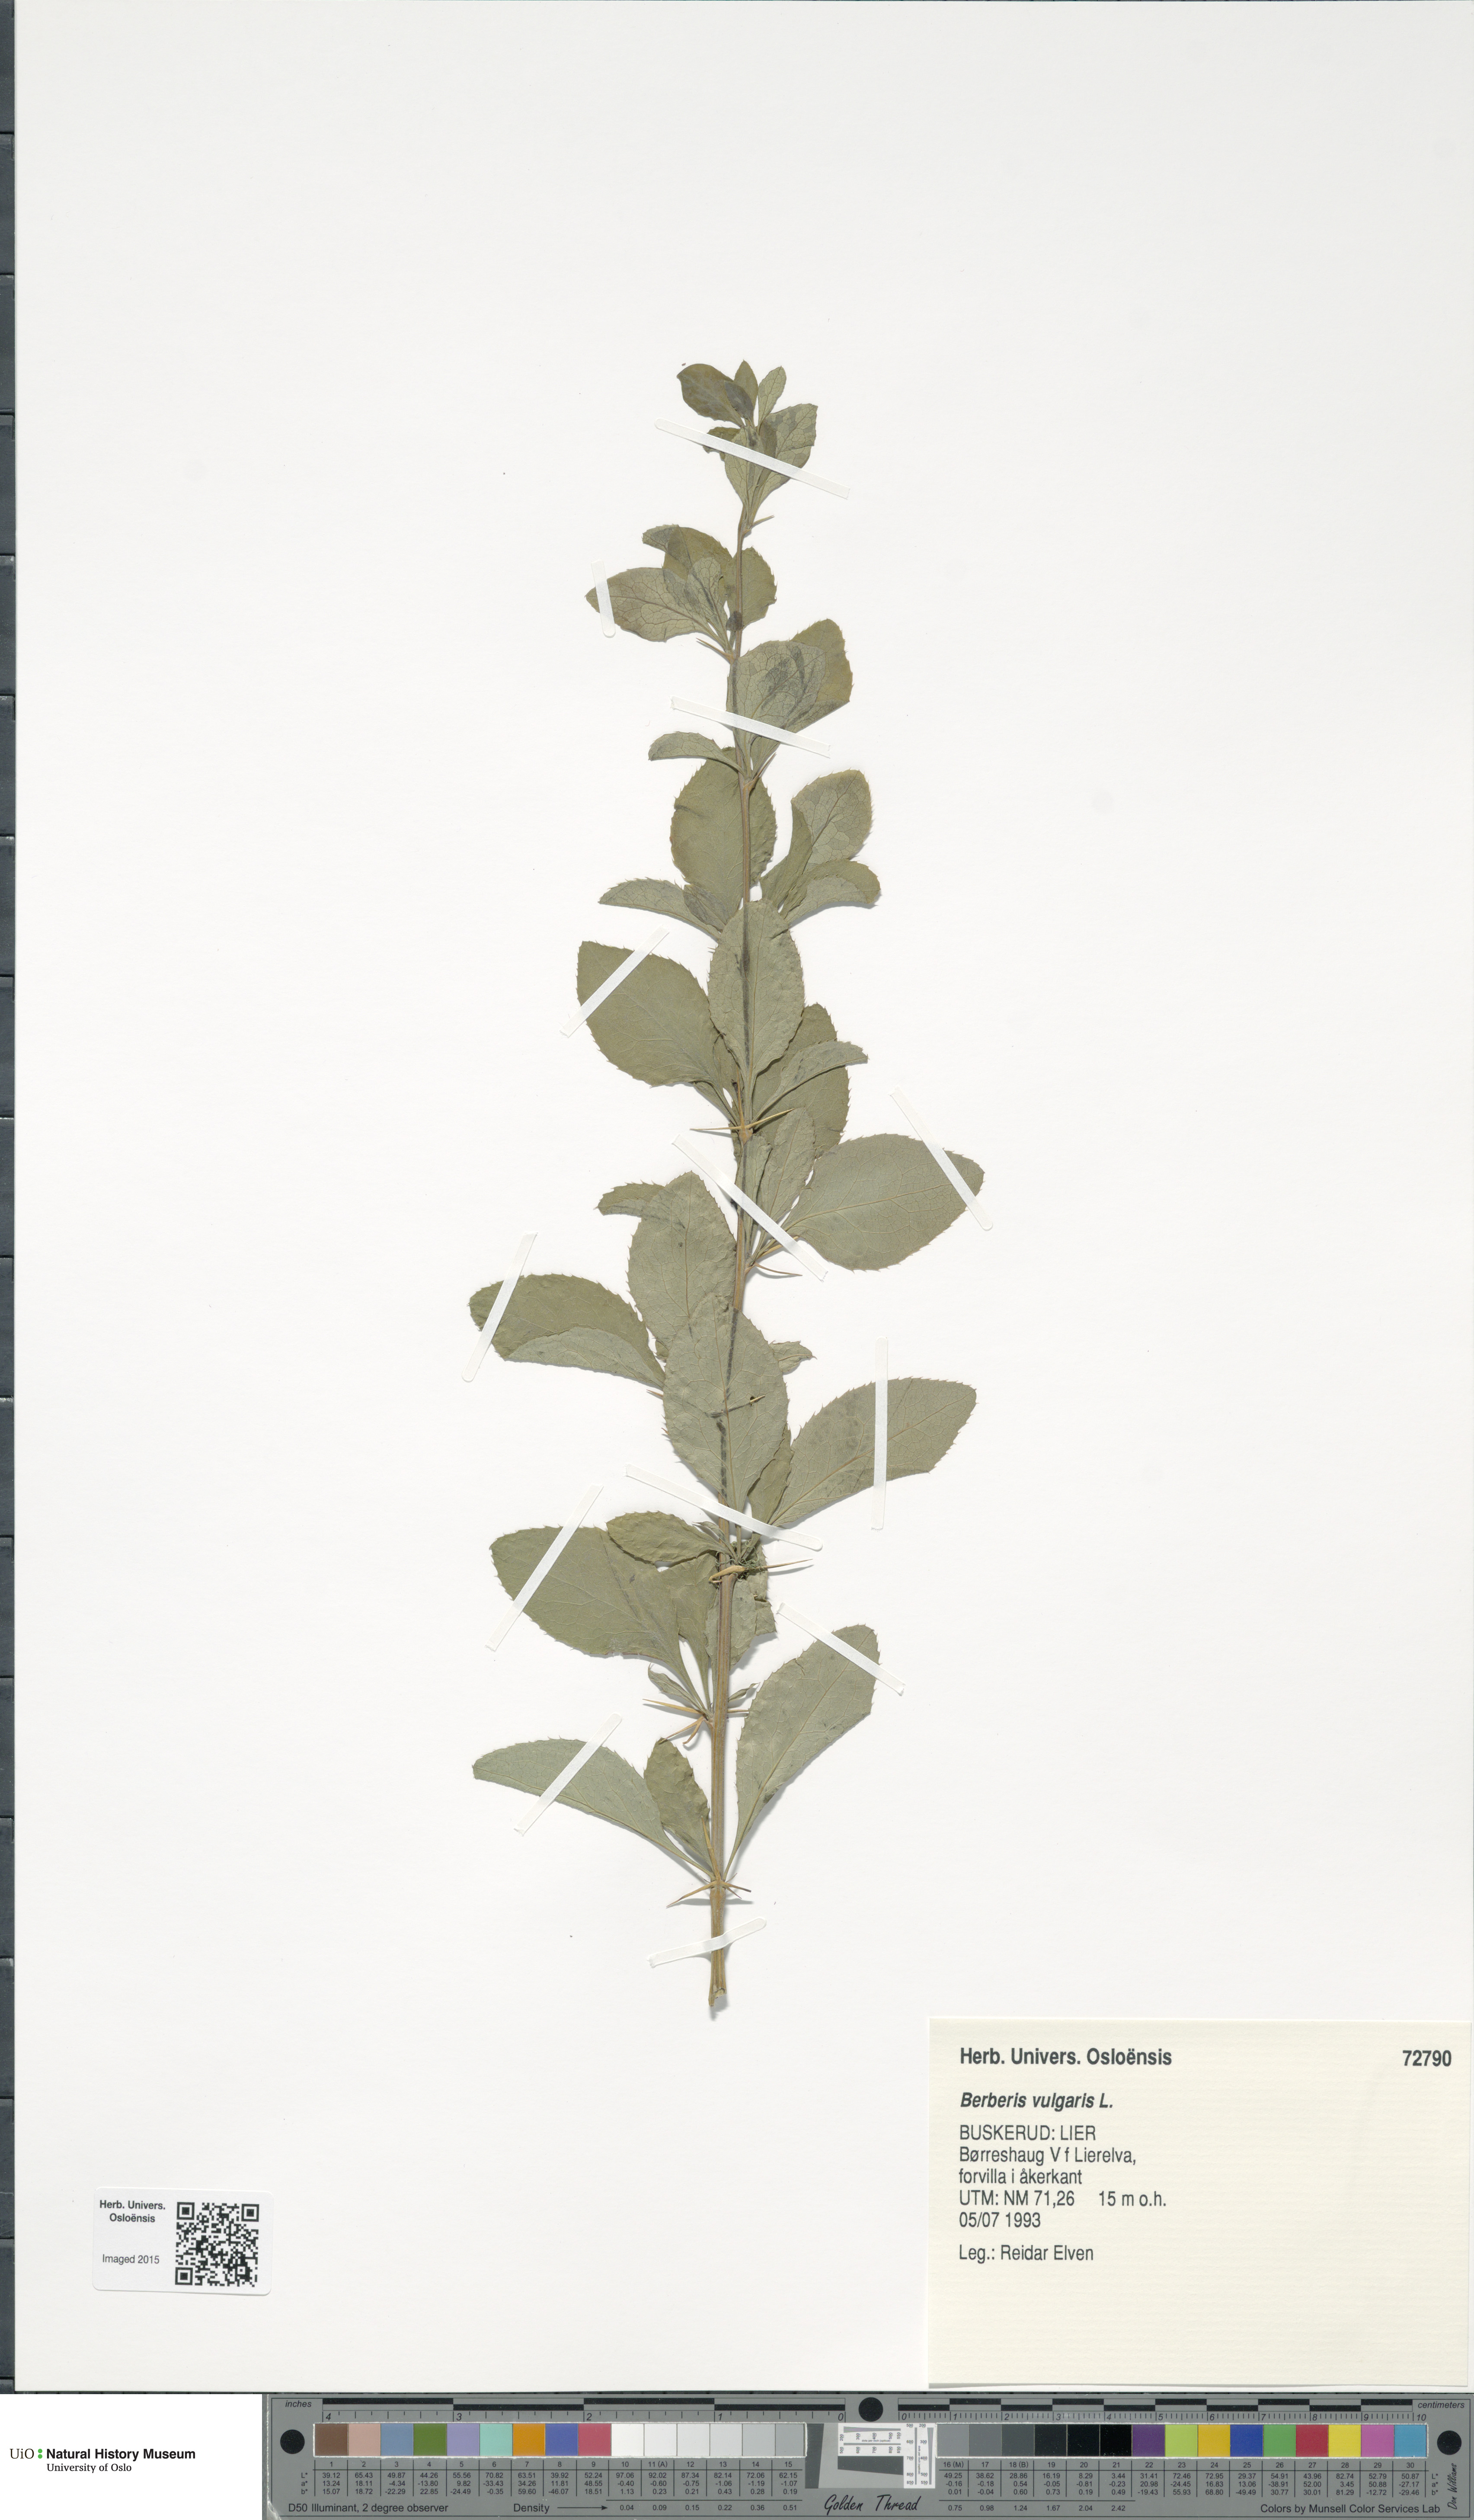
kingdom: Plantae
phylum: Tracheophyta
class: Magnoliopsida
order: Ranunculales
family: Berberidaceae
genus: Berberis
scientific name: Berberis vulgaris
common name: Barberry
